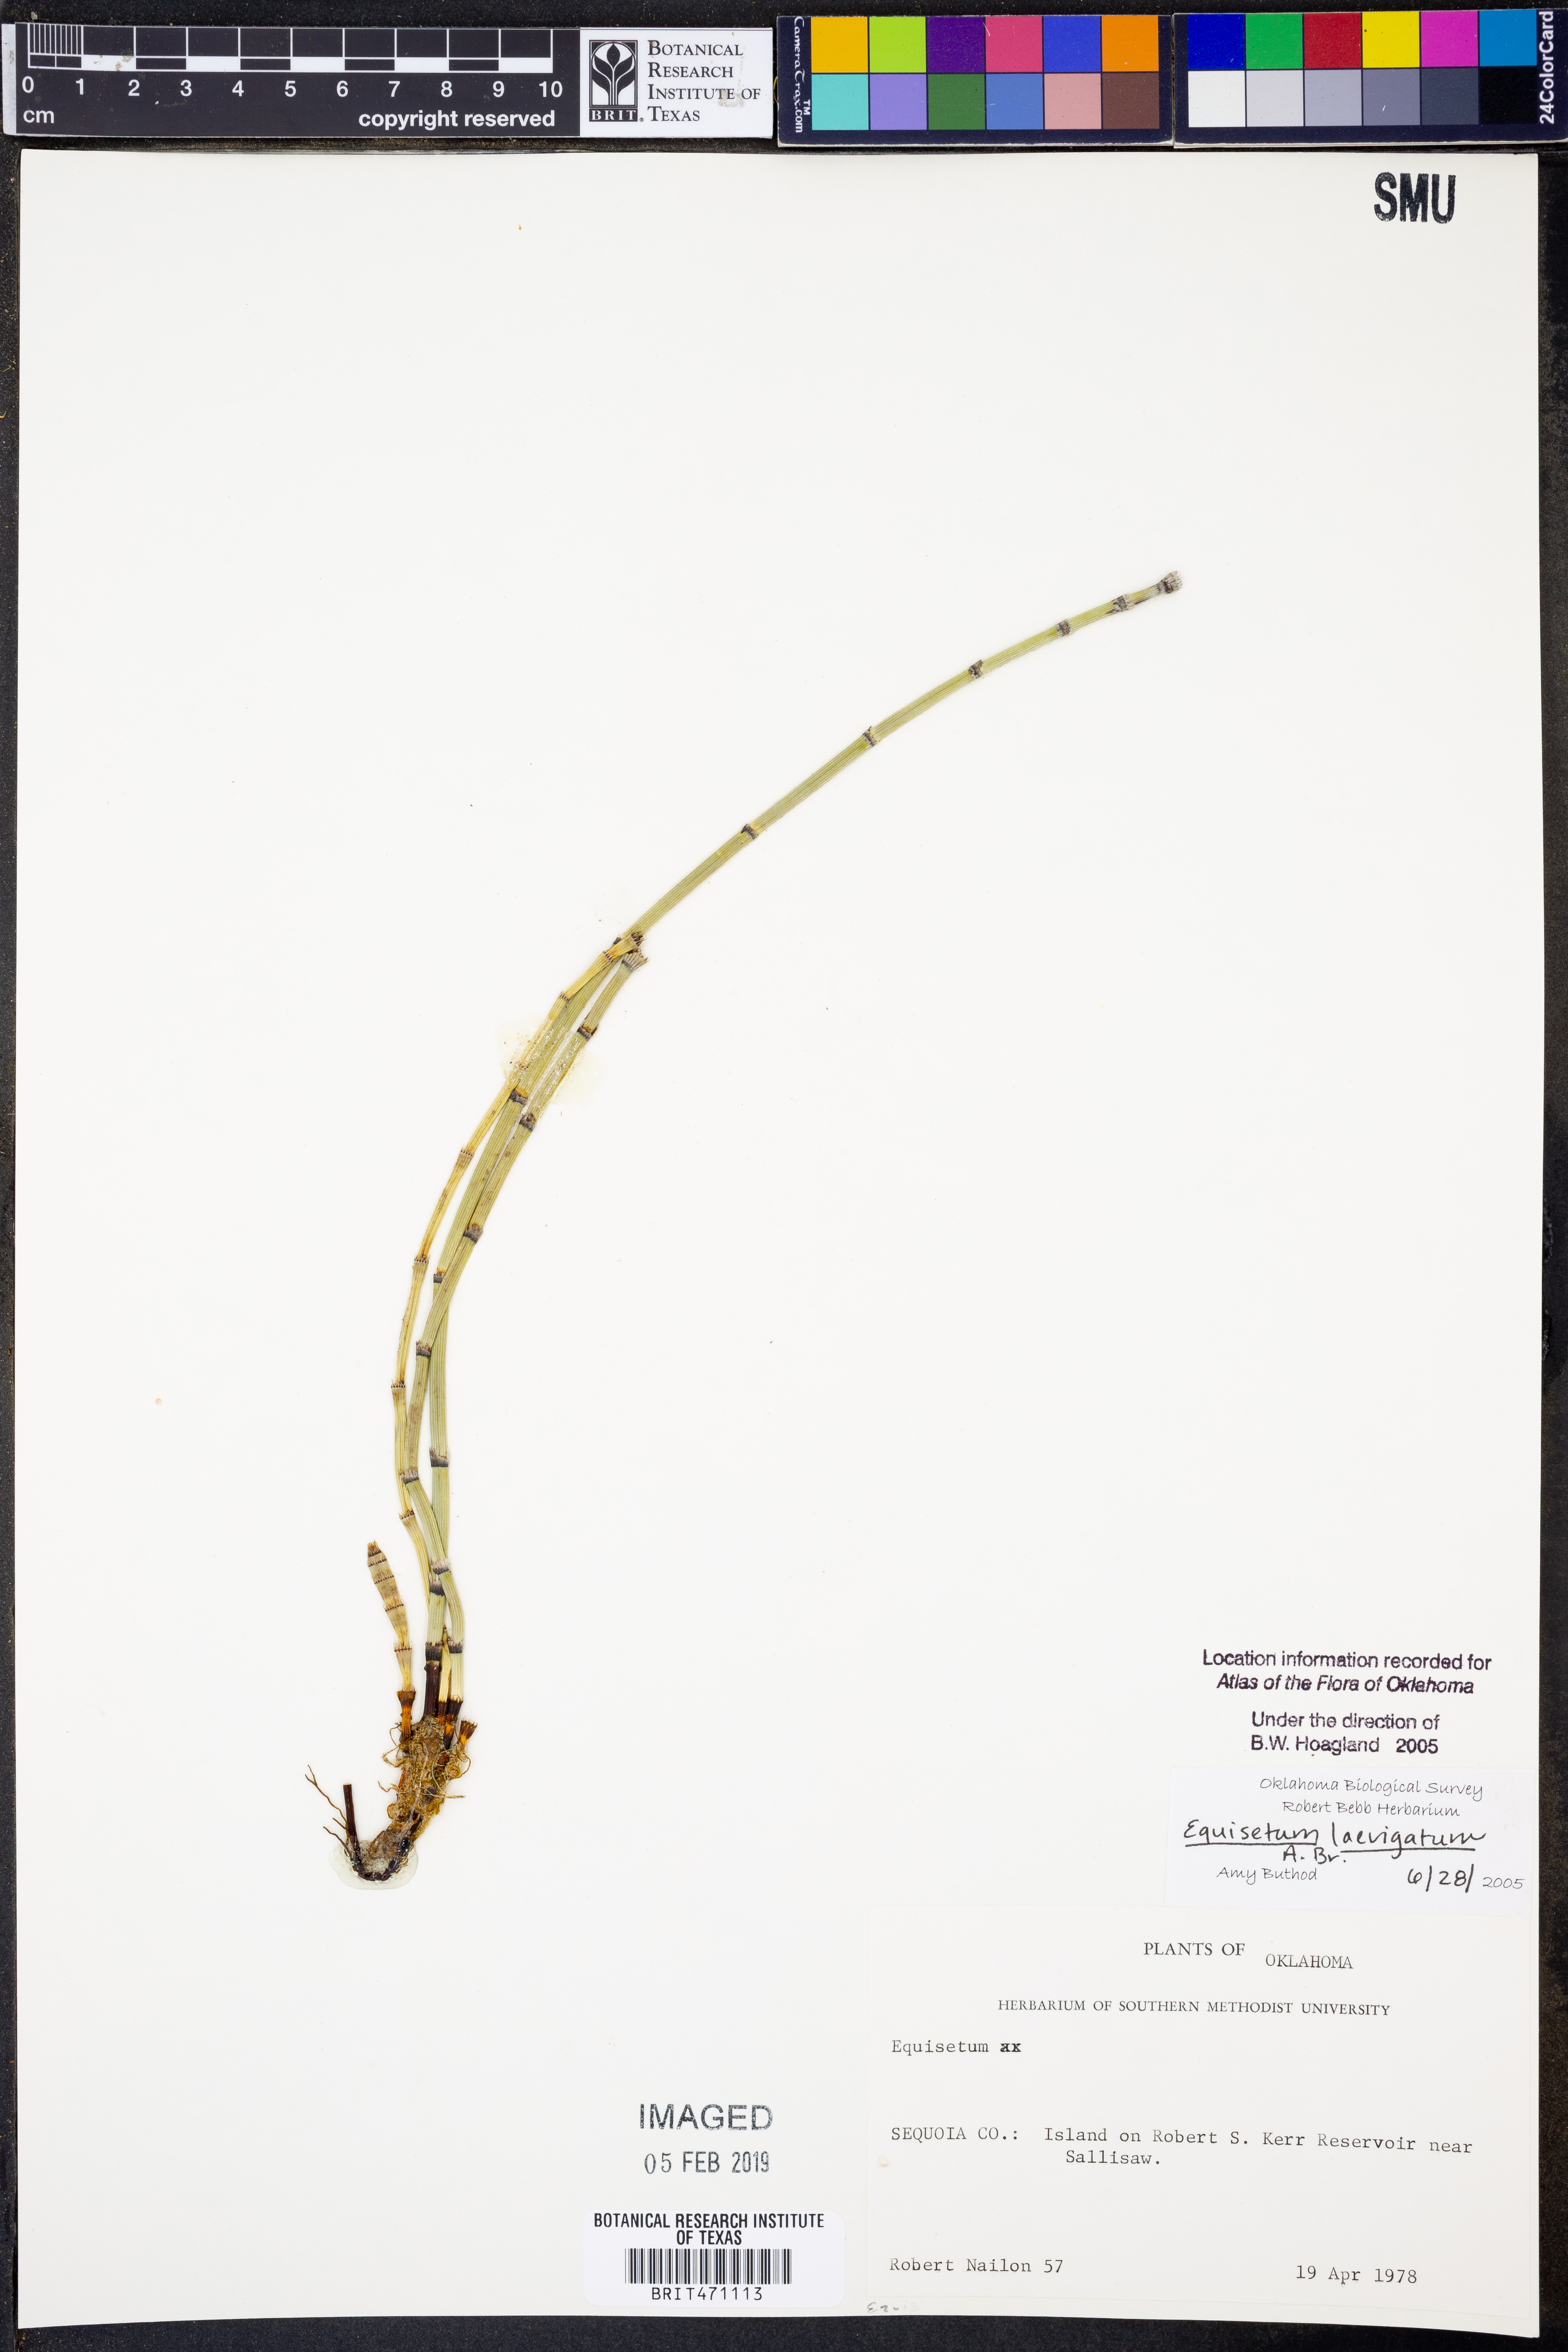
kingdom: Plantae
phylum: Tracheophyta
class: Polypodiopsida
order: Equisetales
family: Equisetaceae
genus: Equisetum
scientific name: Equisetum laevigatum
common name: Smooth scouring-rush
